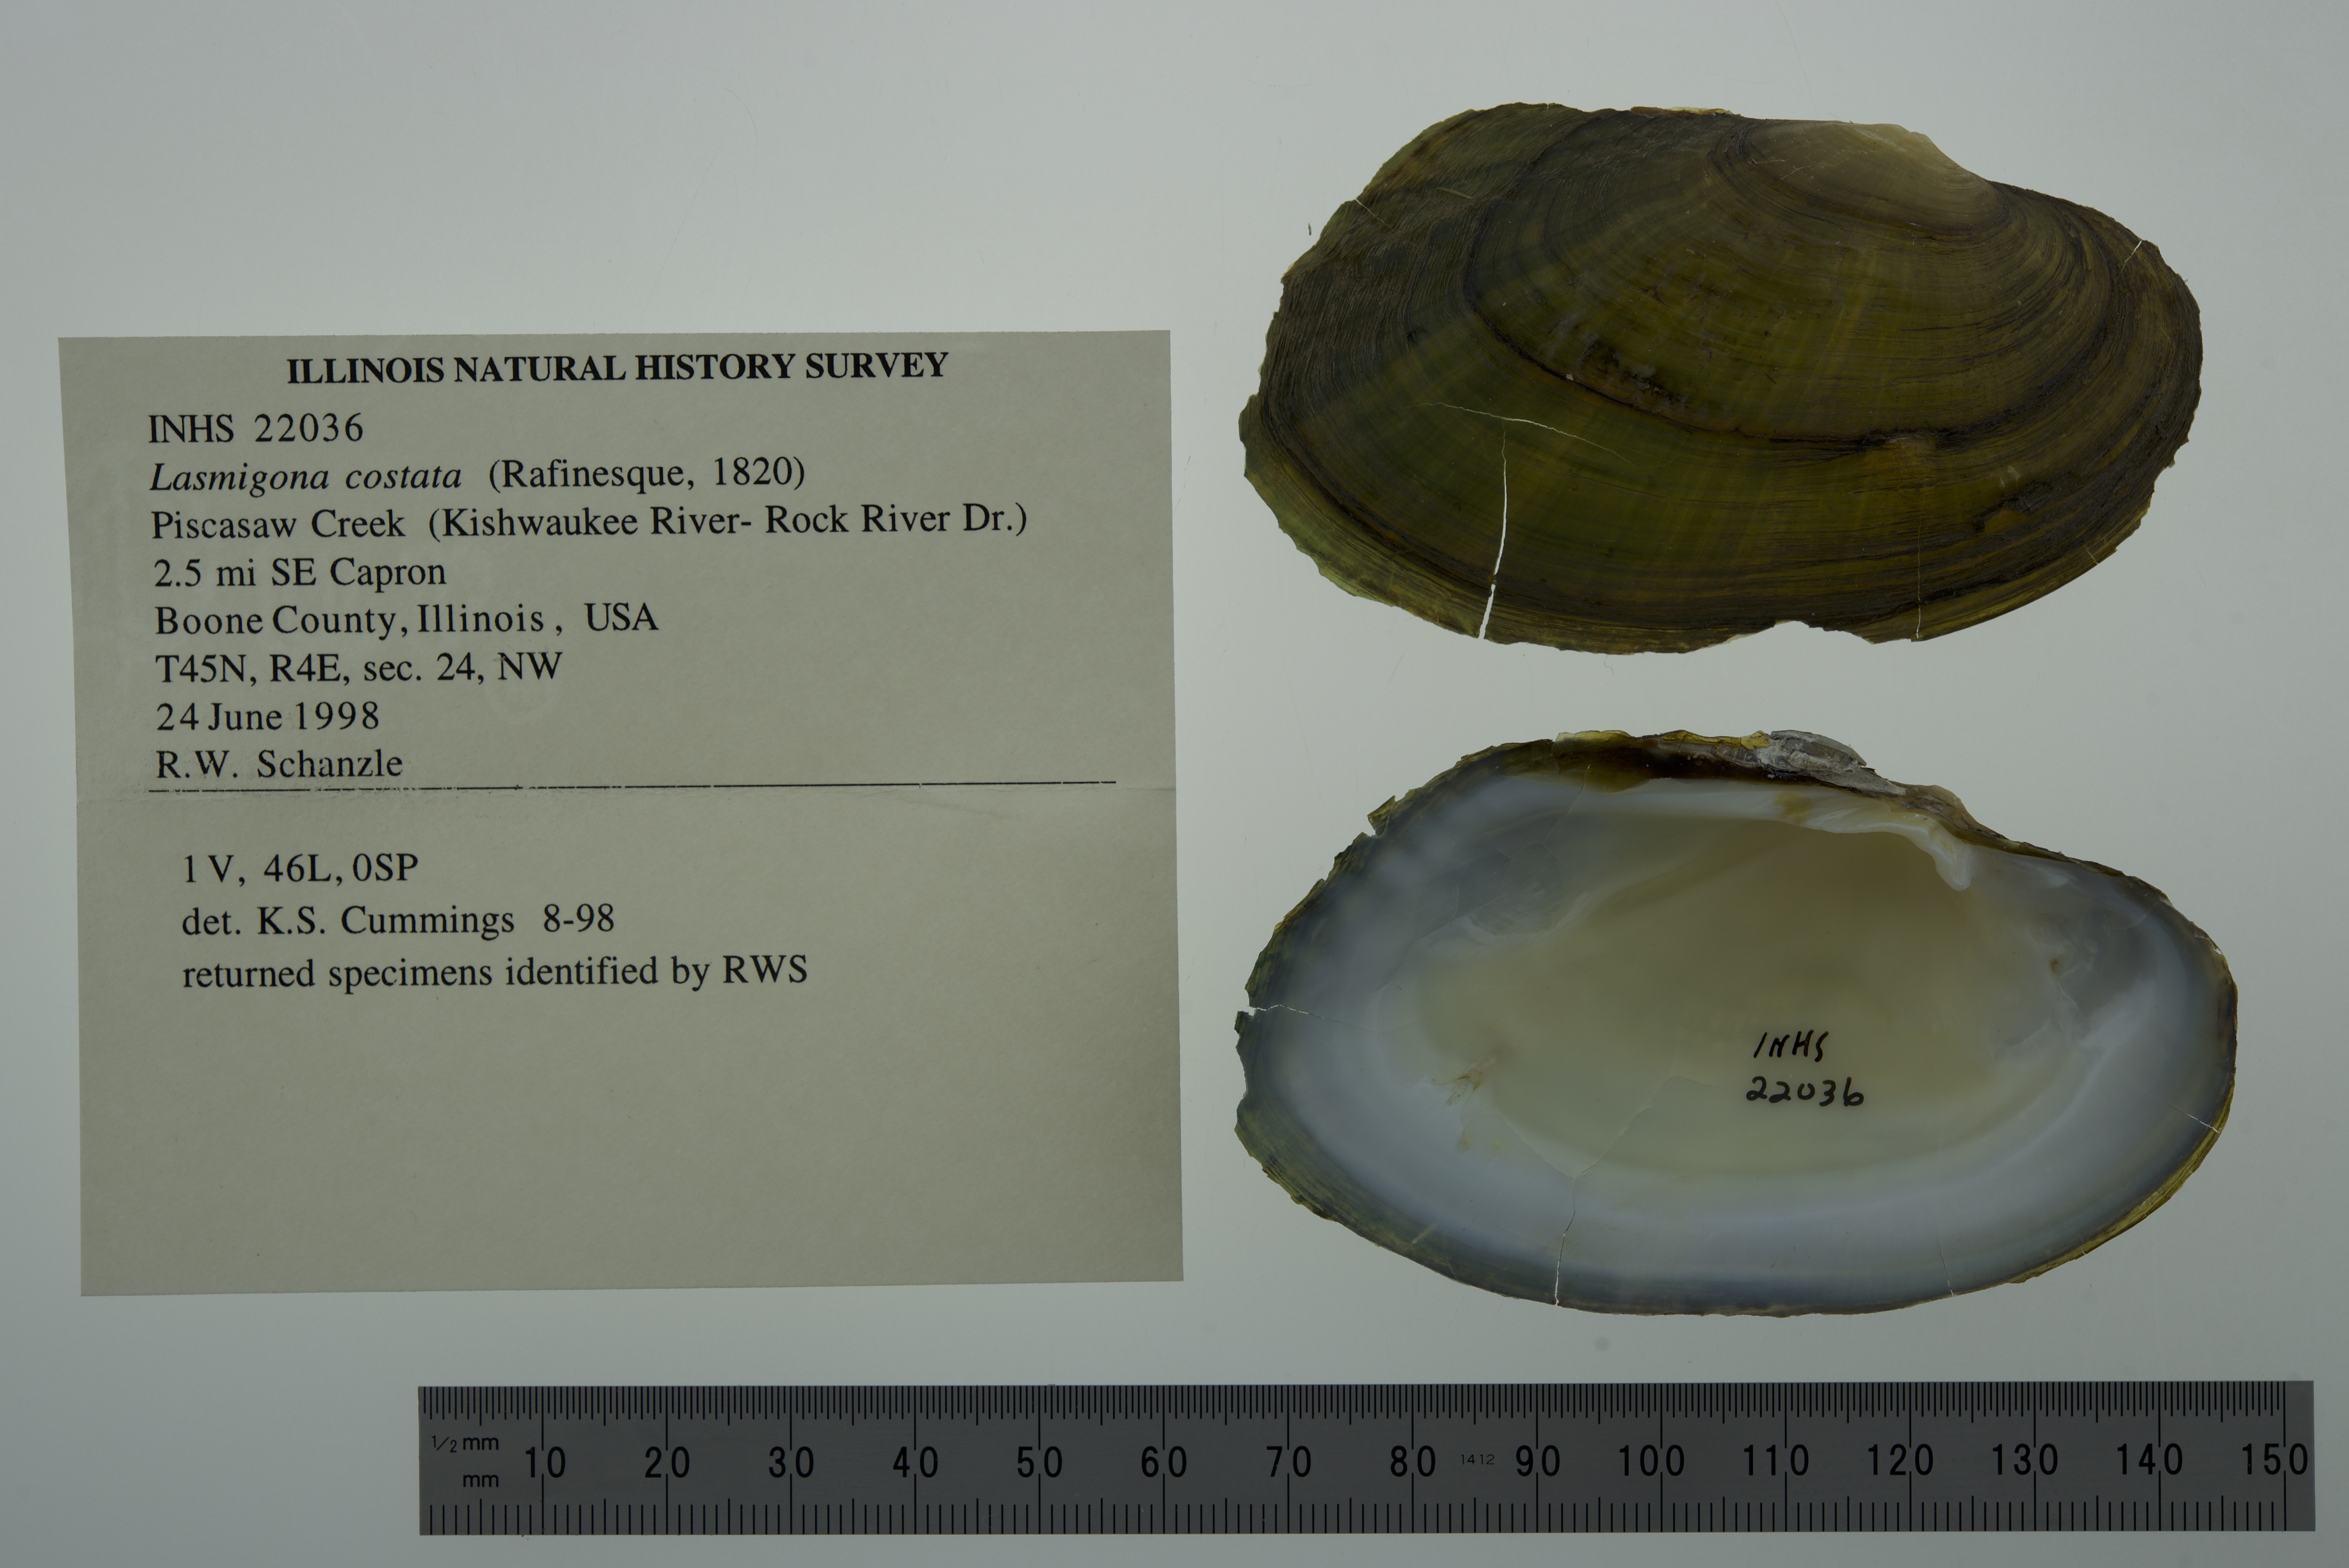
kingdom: Animalia
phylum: Mollusca
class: Bivalvia
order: Unionida
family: Unionidae
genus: Lasmigona
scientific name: Lasmigona costata
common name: Flutedshell
